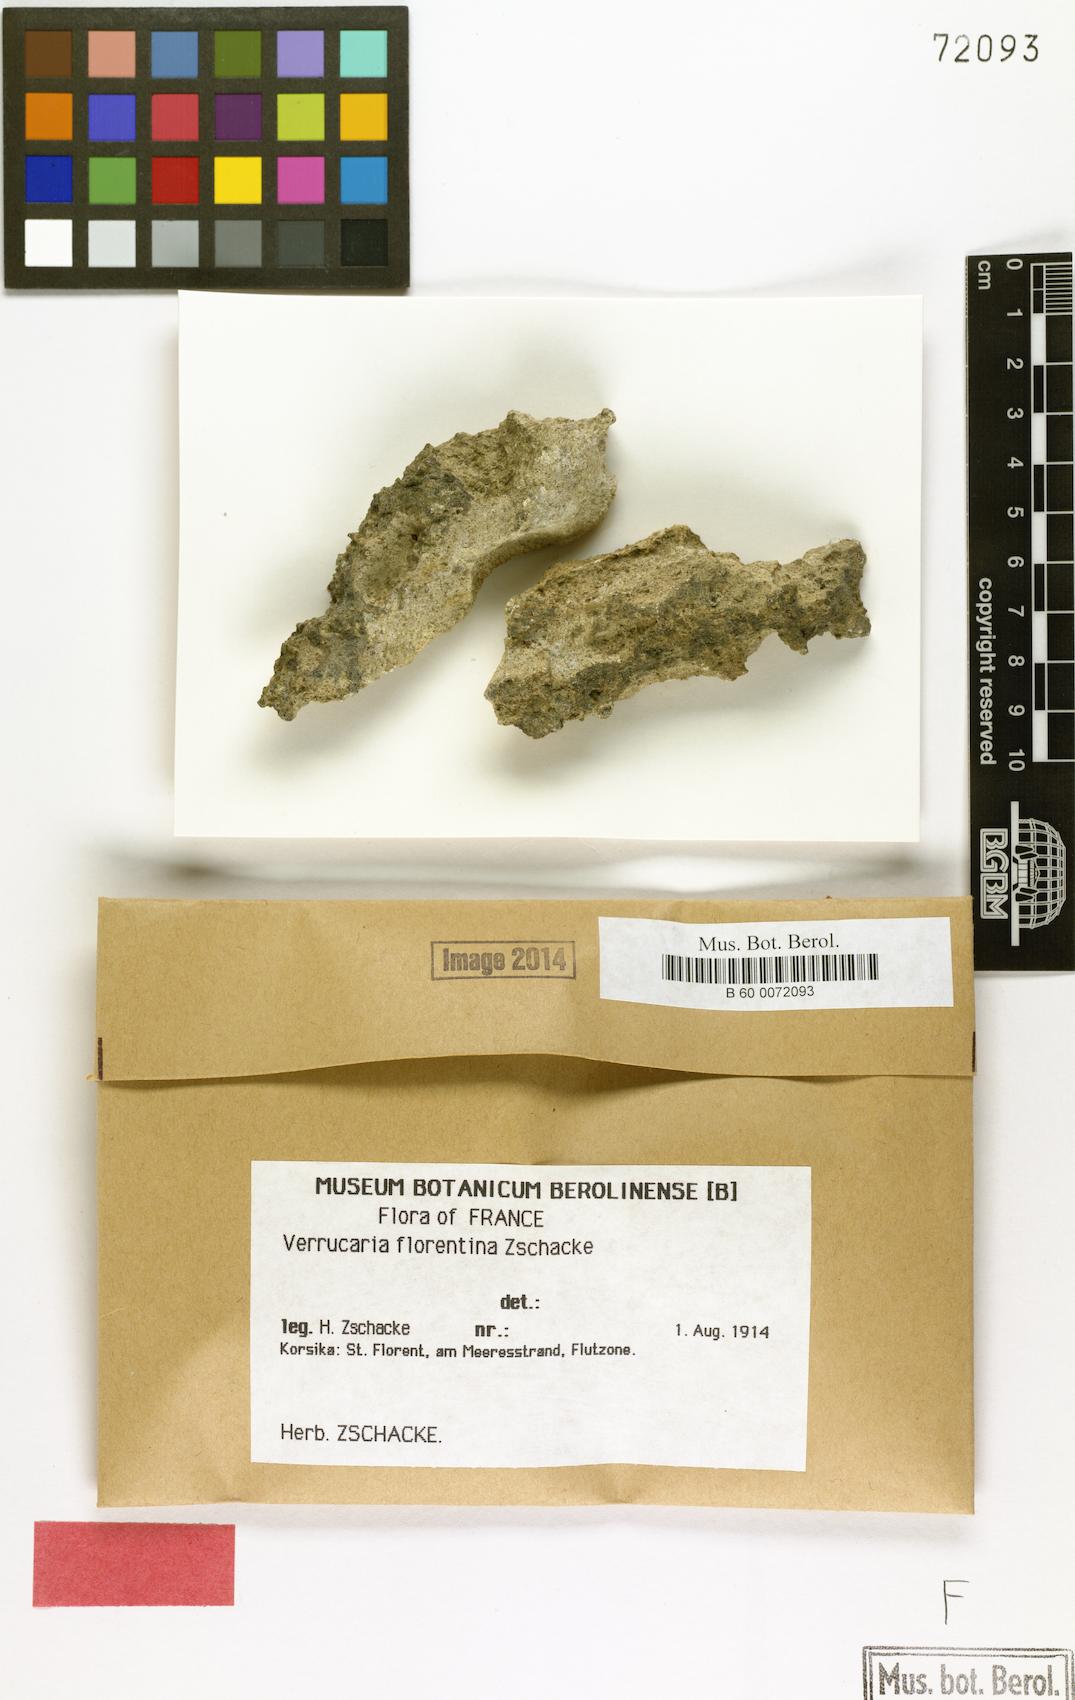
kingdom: Fungi
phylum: Ascomycota
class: Eurotiomycetes
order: Verrucariales
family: Verrucariaceae
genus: Verrucaria
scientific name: Verrucaria florentina
